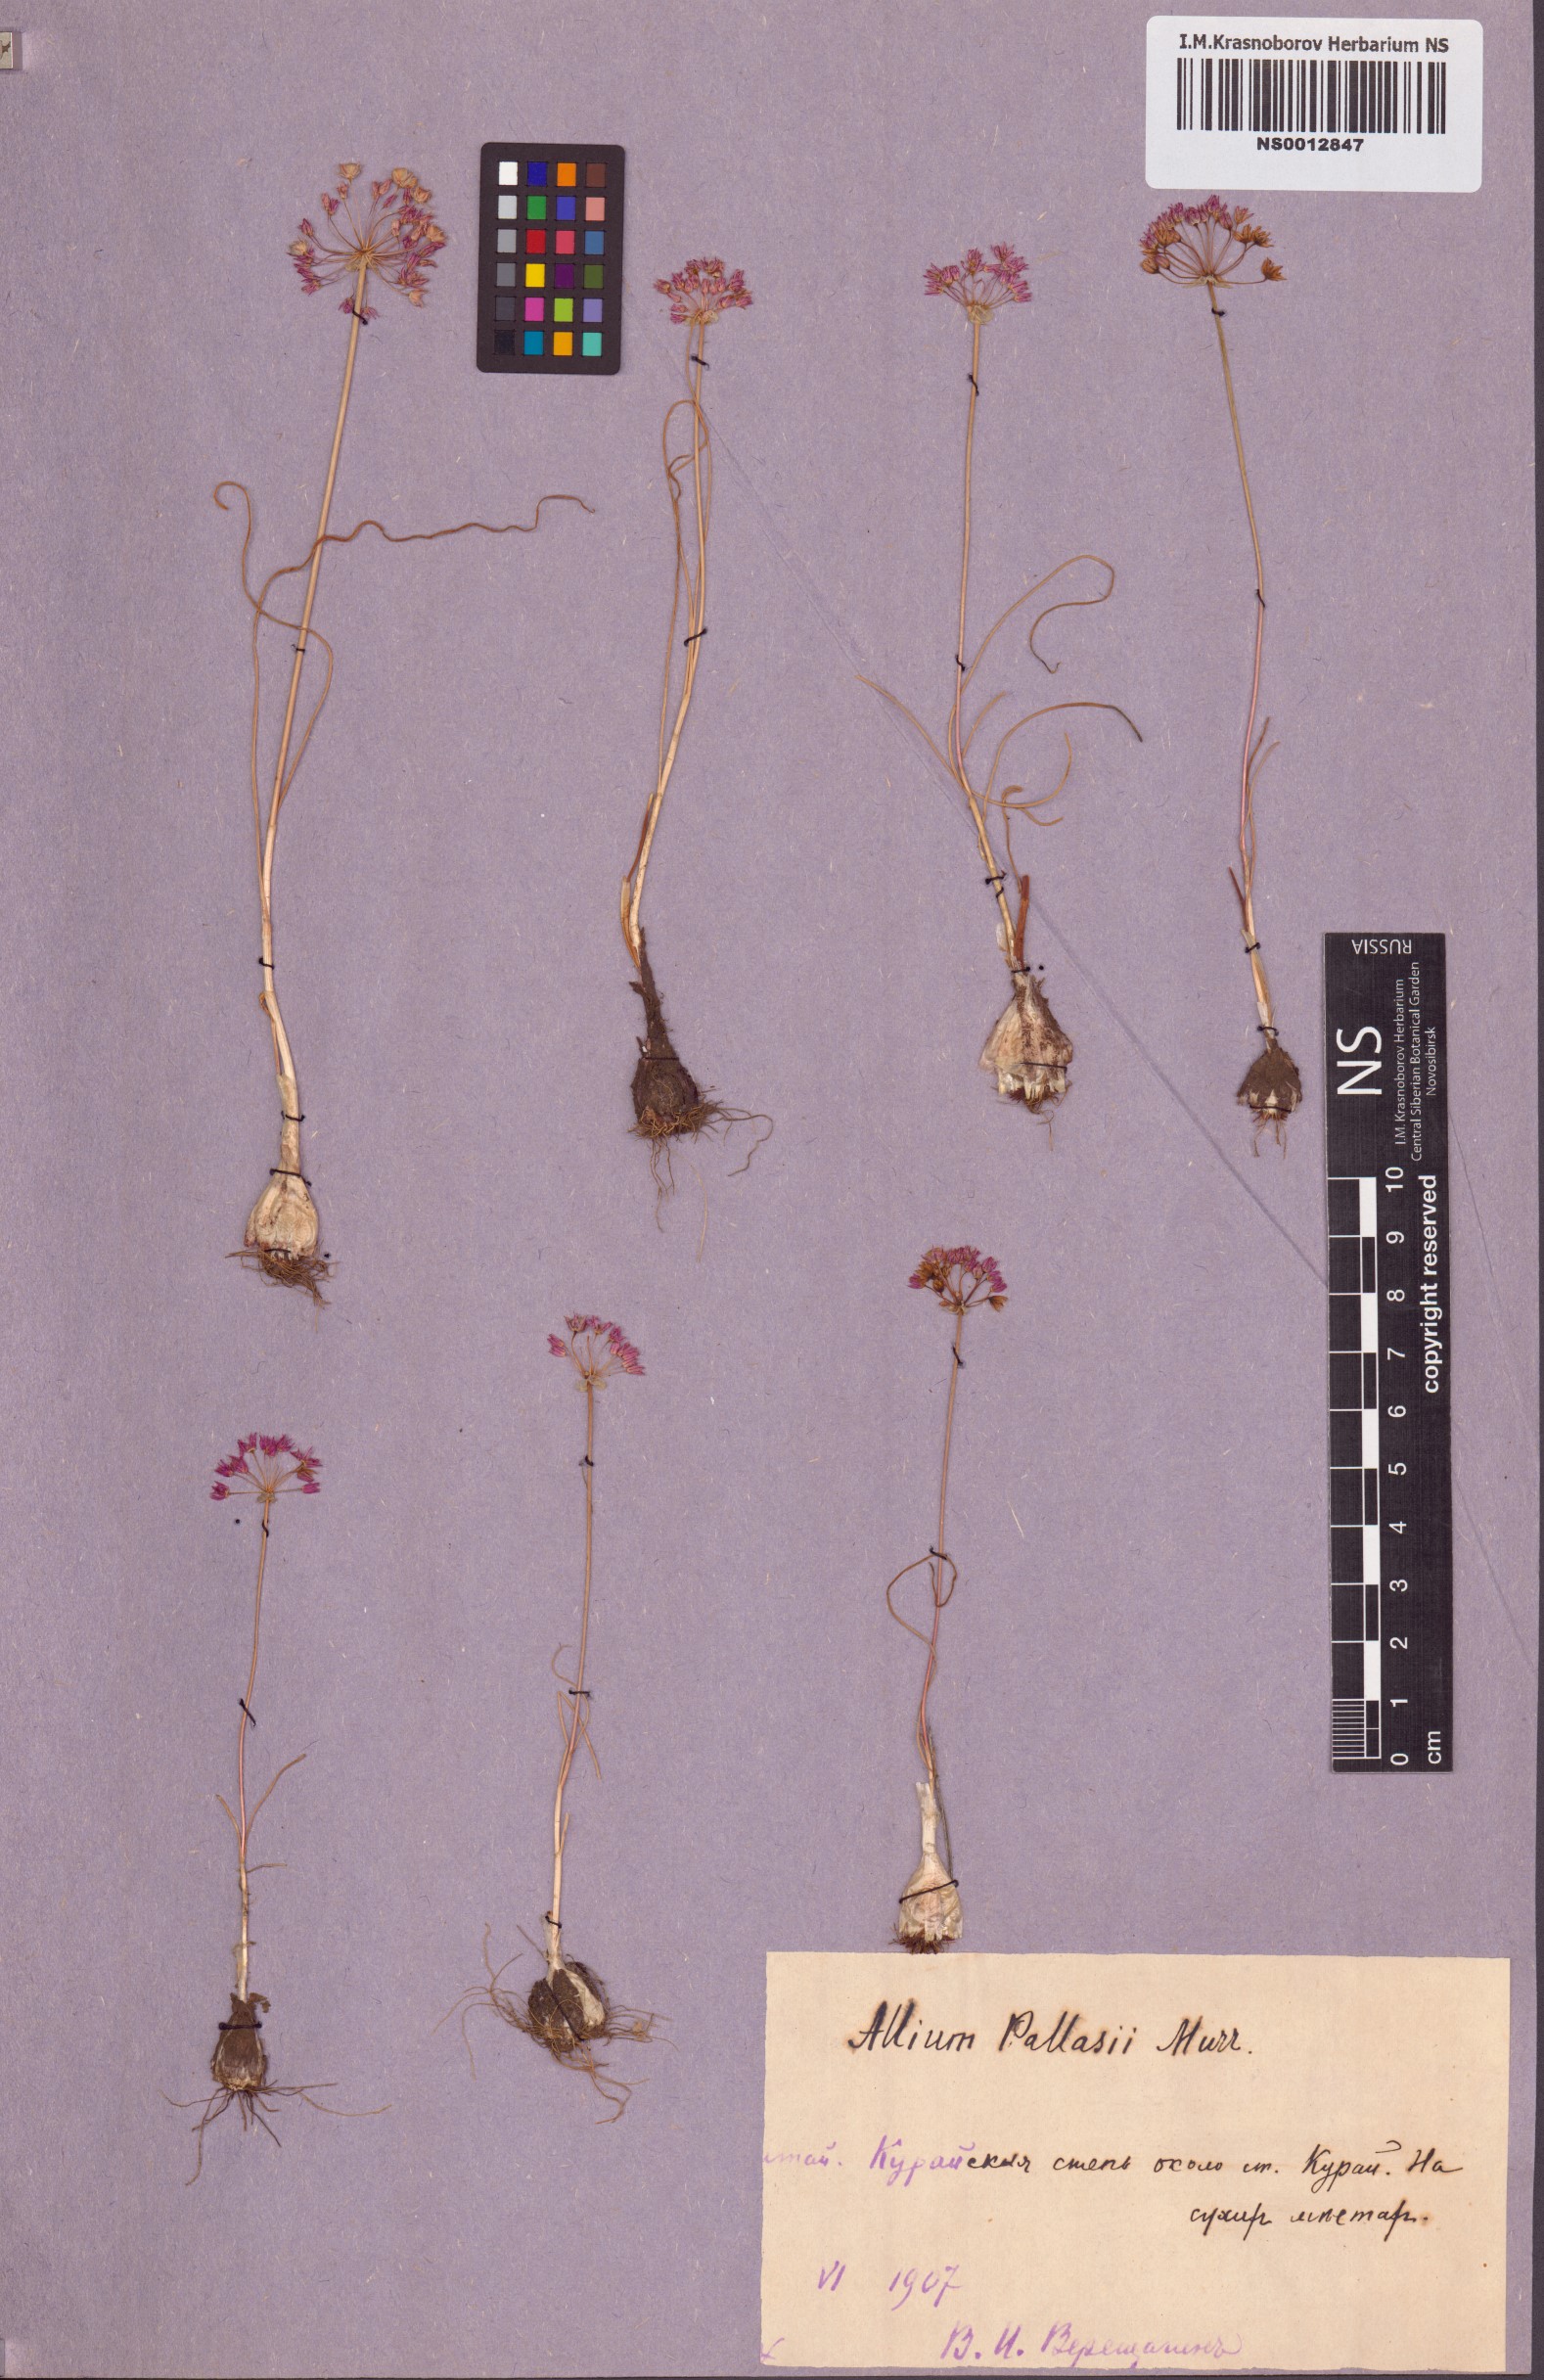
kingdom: Plantae
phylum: Tracheophyta
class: Liliopsida
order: Asparagales
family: Amaryllidaceae
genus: Allium
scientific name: Allium pallasii
